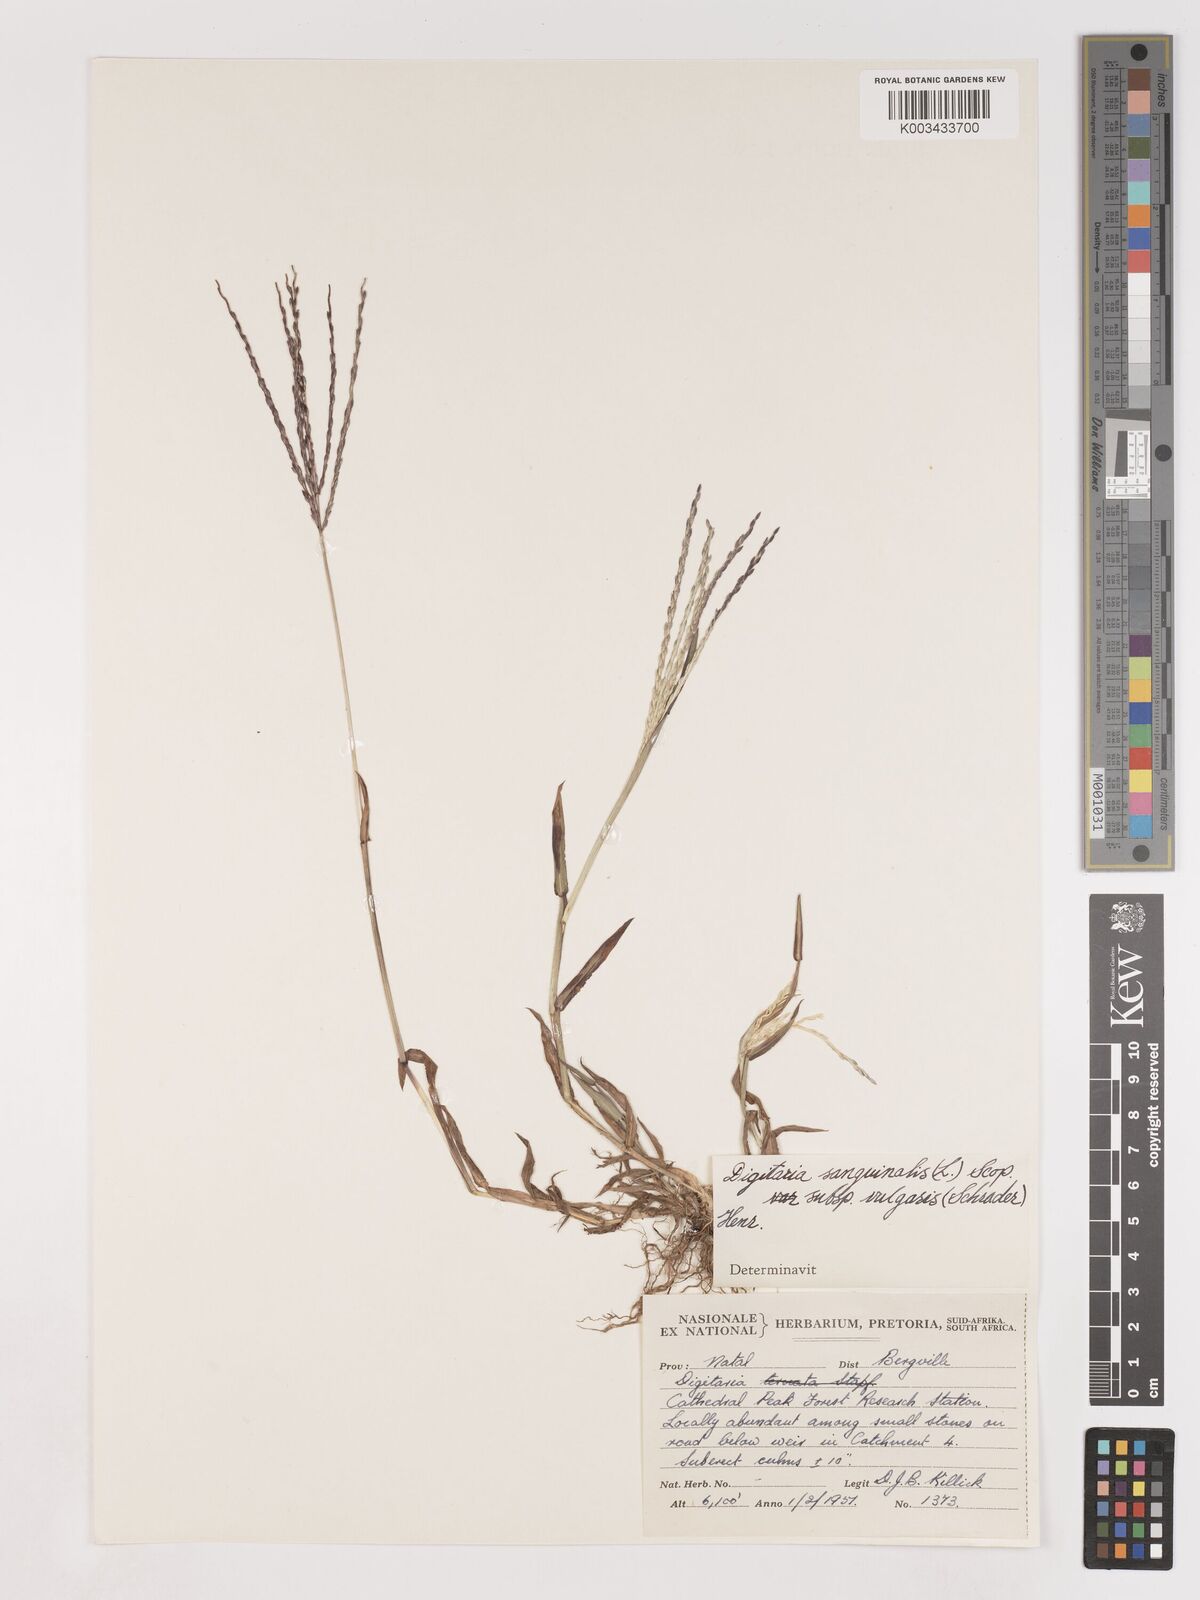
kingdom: Plantae
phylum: Tracheophyta
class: Liliopsida
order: Poales
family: Poaceae
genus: Digitaria
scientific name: Digitaria sanguinalis
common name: Hairy crabgrass
